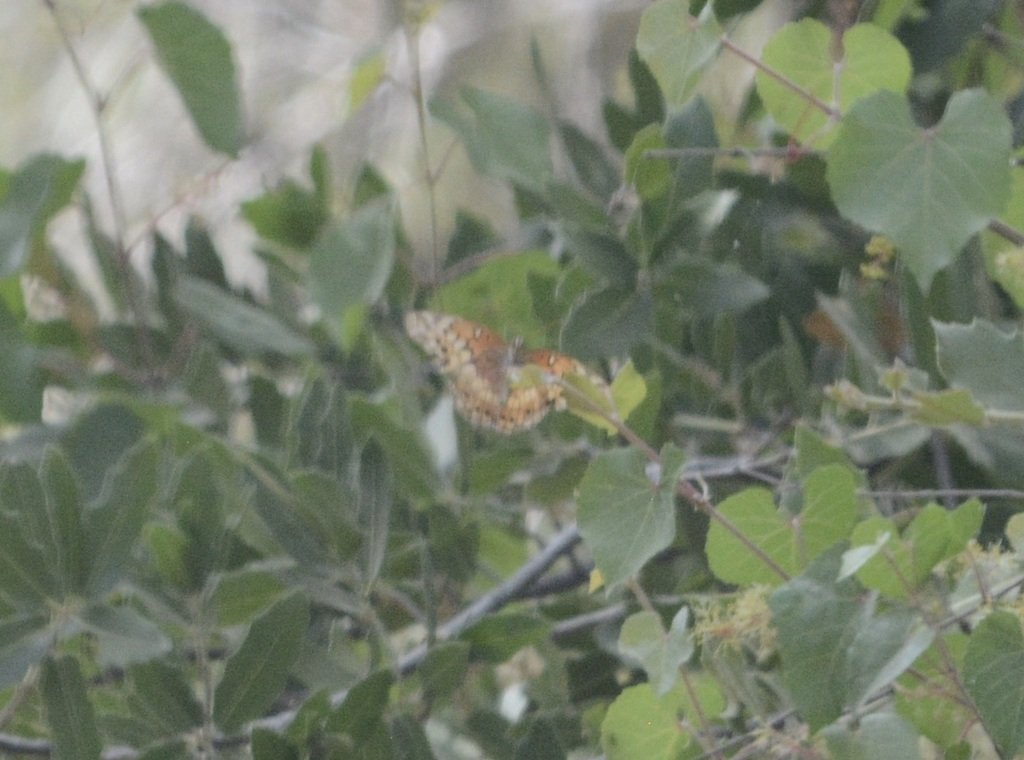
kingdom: Animalia
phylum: Arthropoda
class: Insecta
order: Lepidoptera
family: Nymphalidae
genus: Euptoieta
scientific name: Euptoieta claudia
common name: Variegated Fritillary
